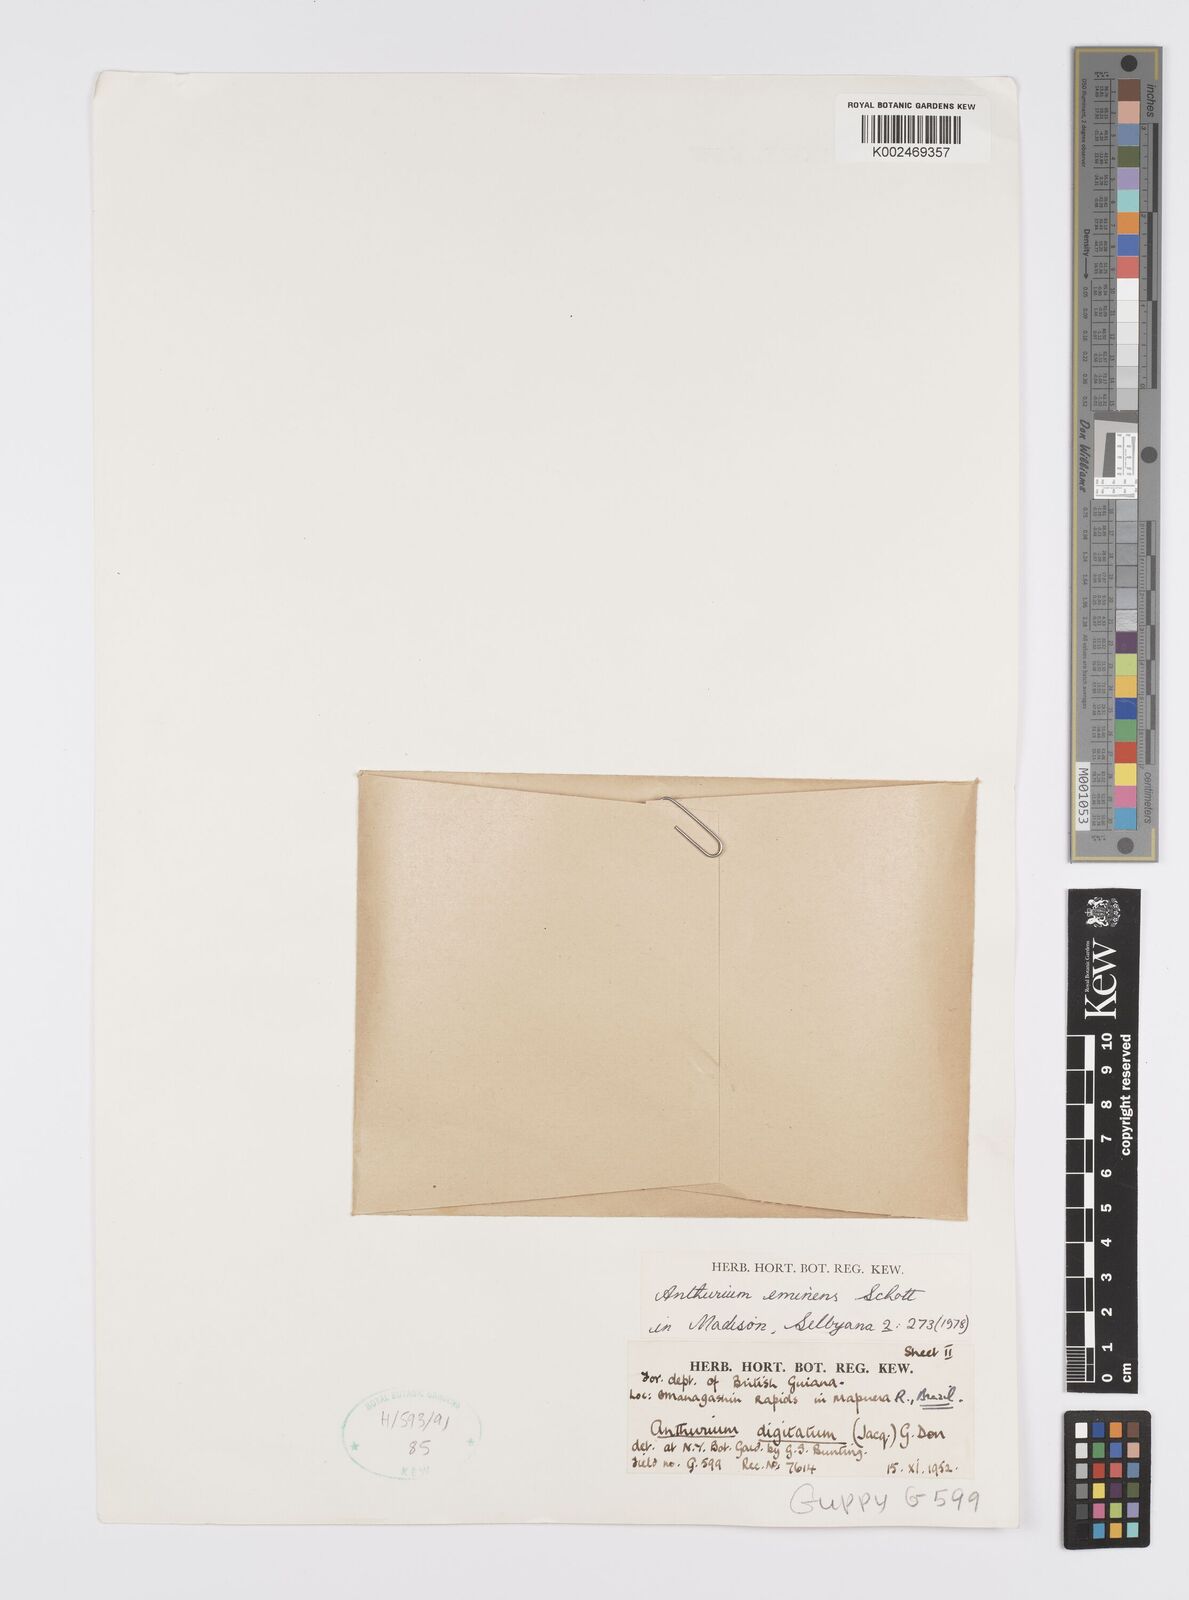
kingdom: Plantae
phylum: Tracheophyta
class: Liliopsida
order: Alismatales
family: Araceae
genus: Anthurium
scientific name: Anthurium eminens
